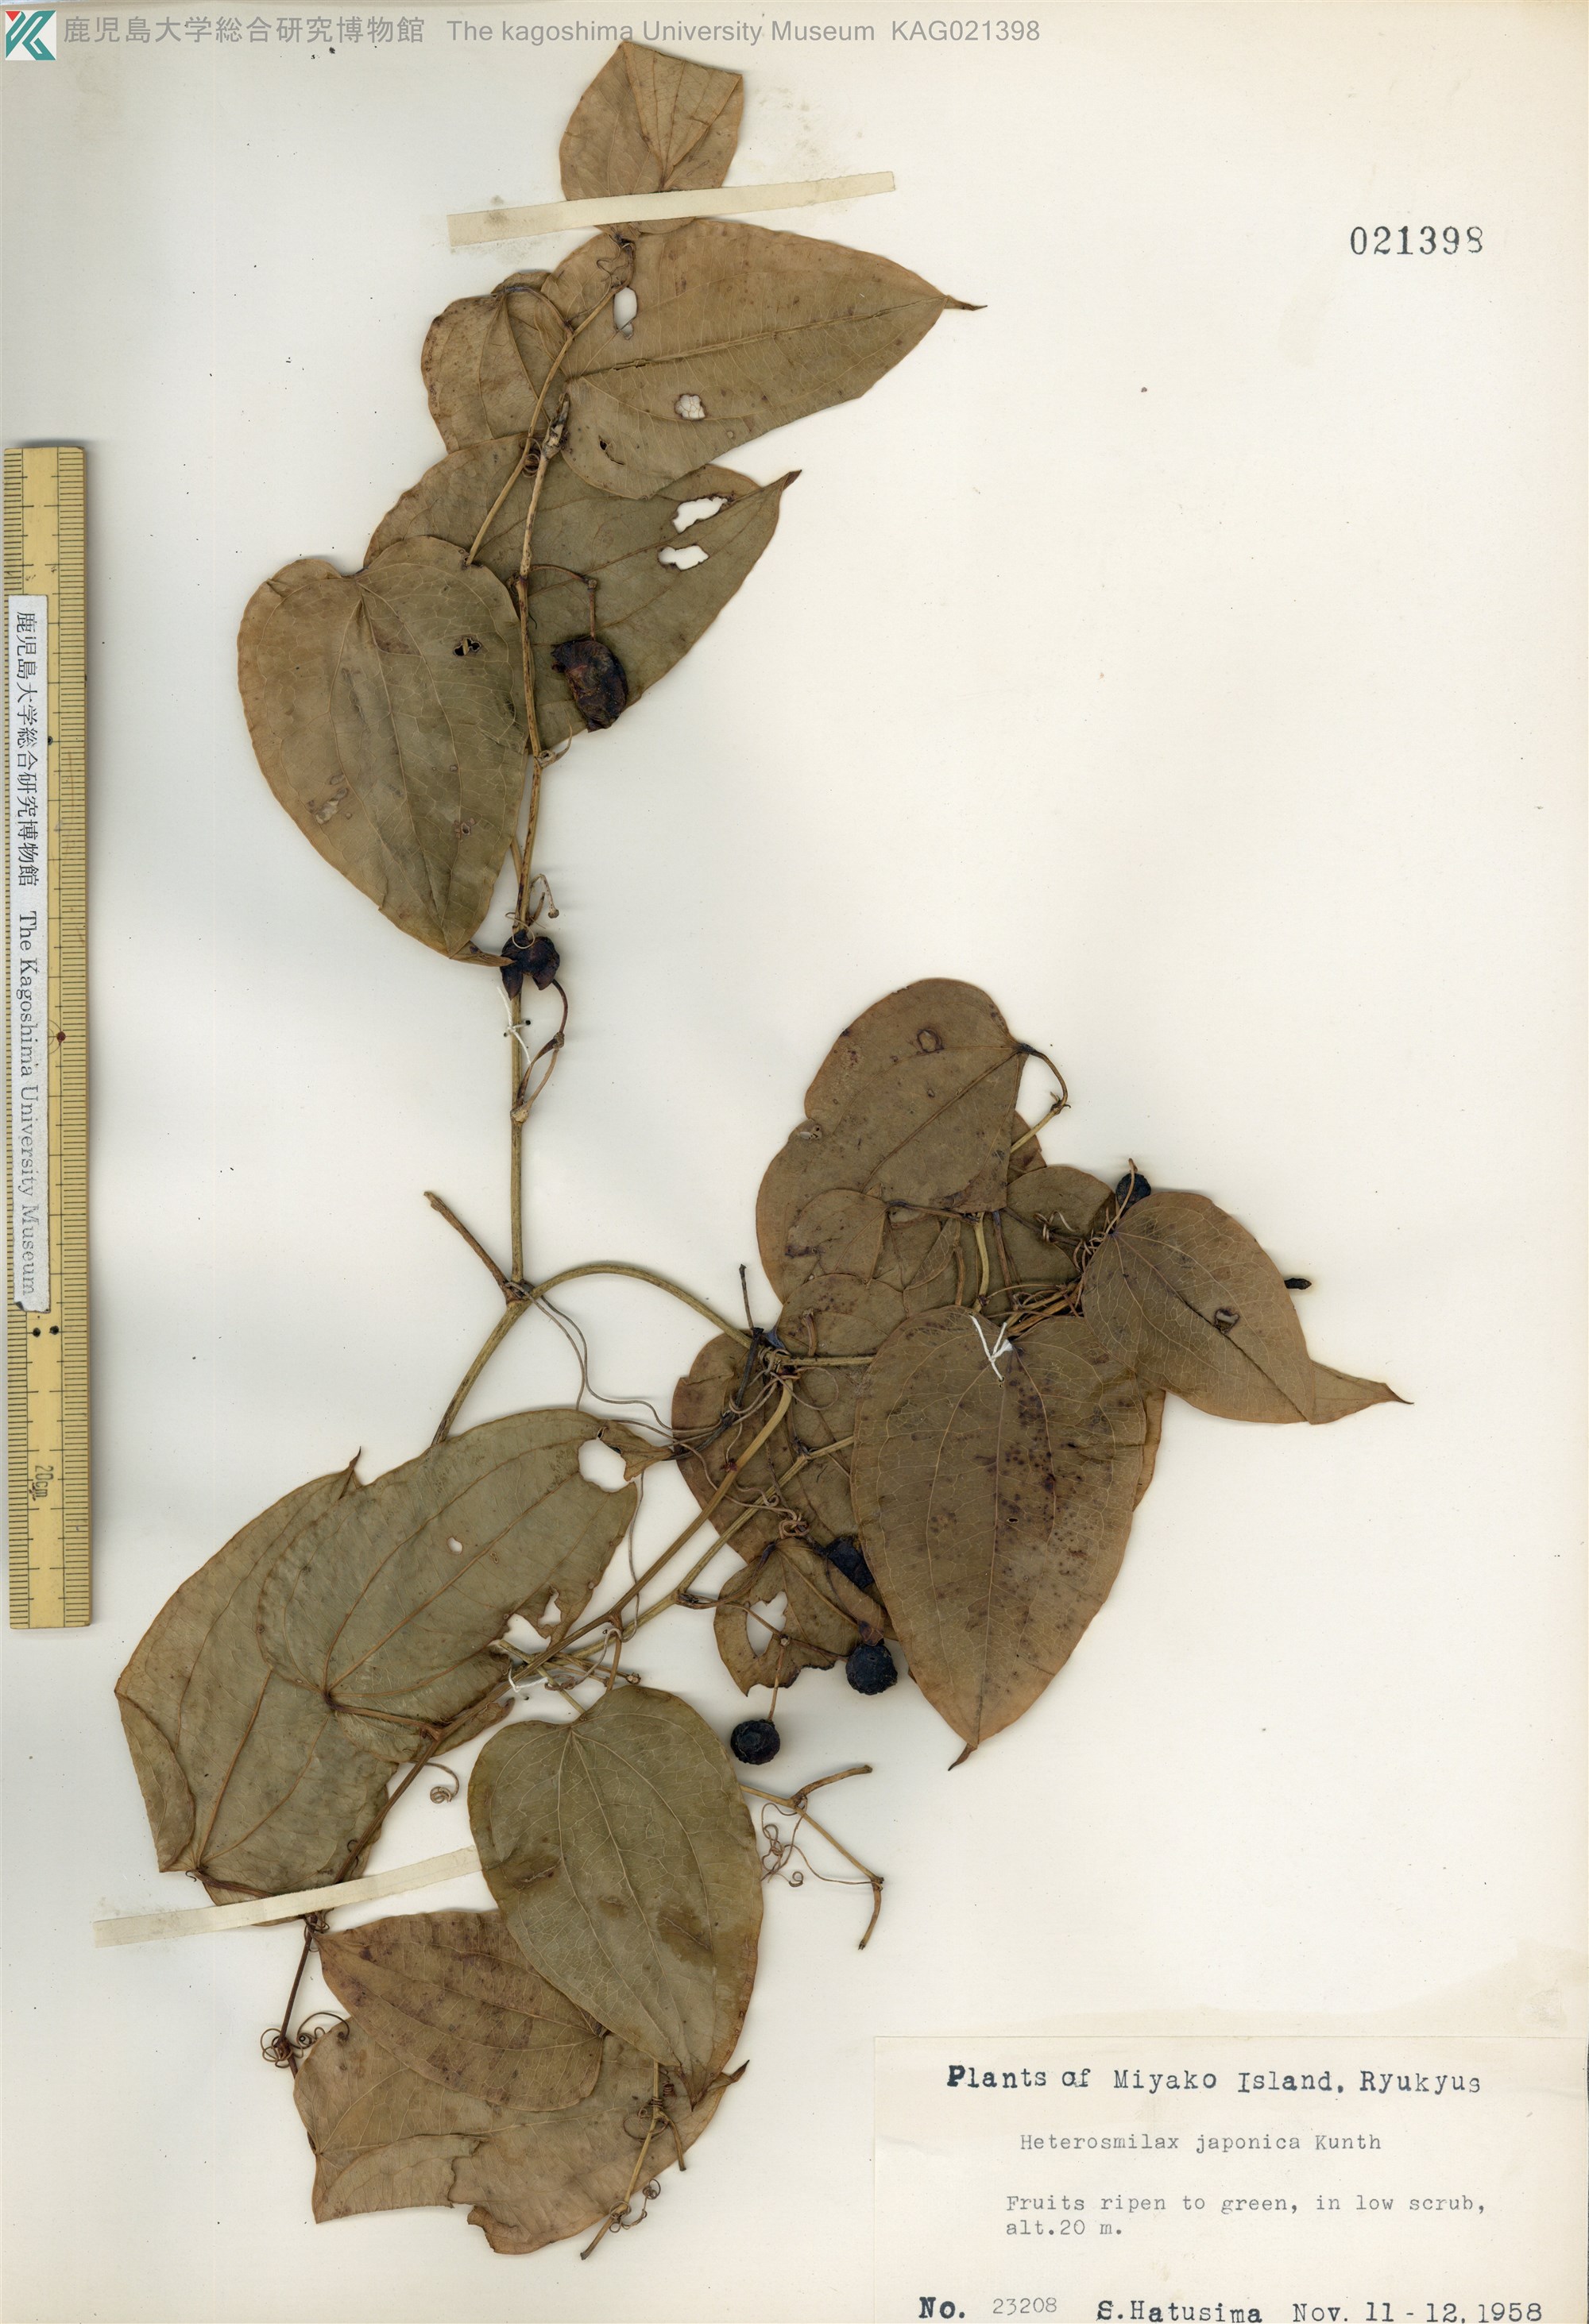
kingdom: Plantae
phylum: Tracheophyta
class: Liliopsida
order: Liliales
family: Smilacaceae
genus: Smilax
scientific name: Smilax insularis
